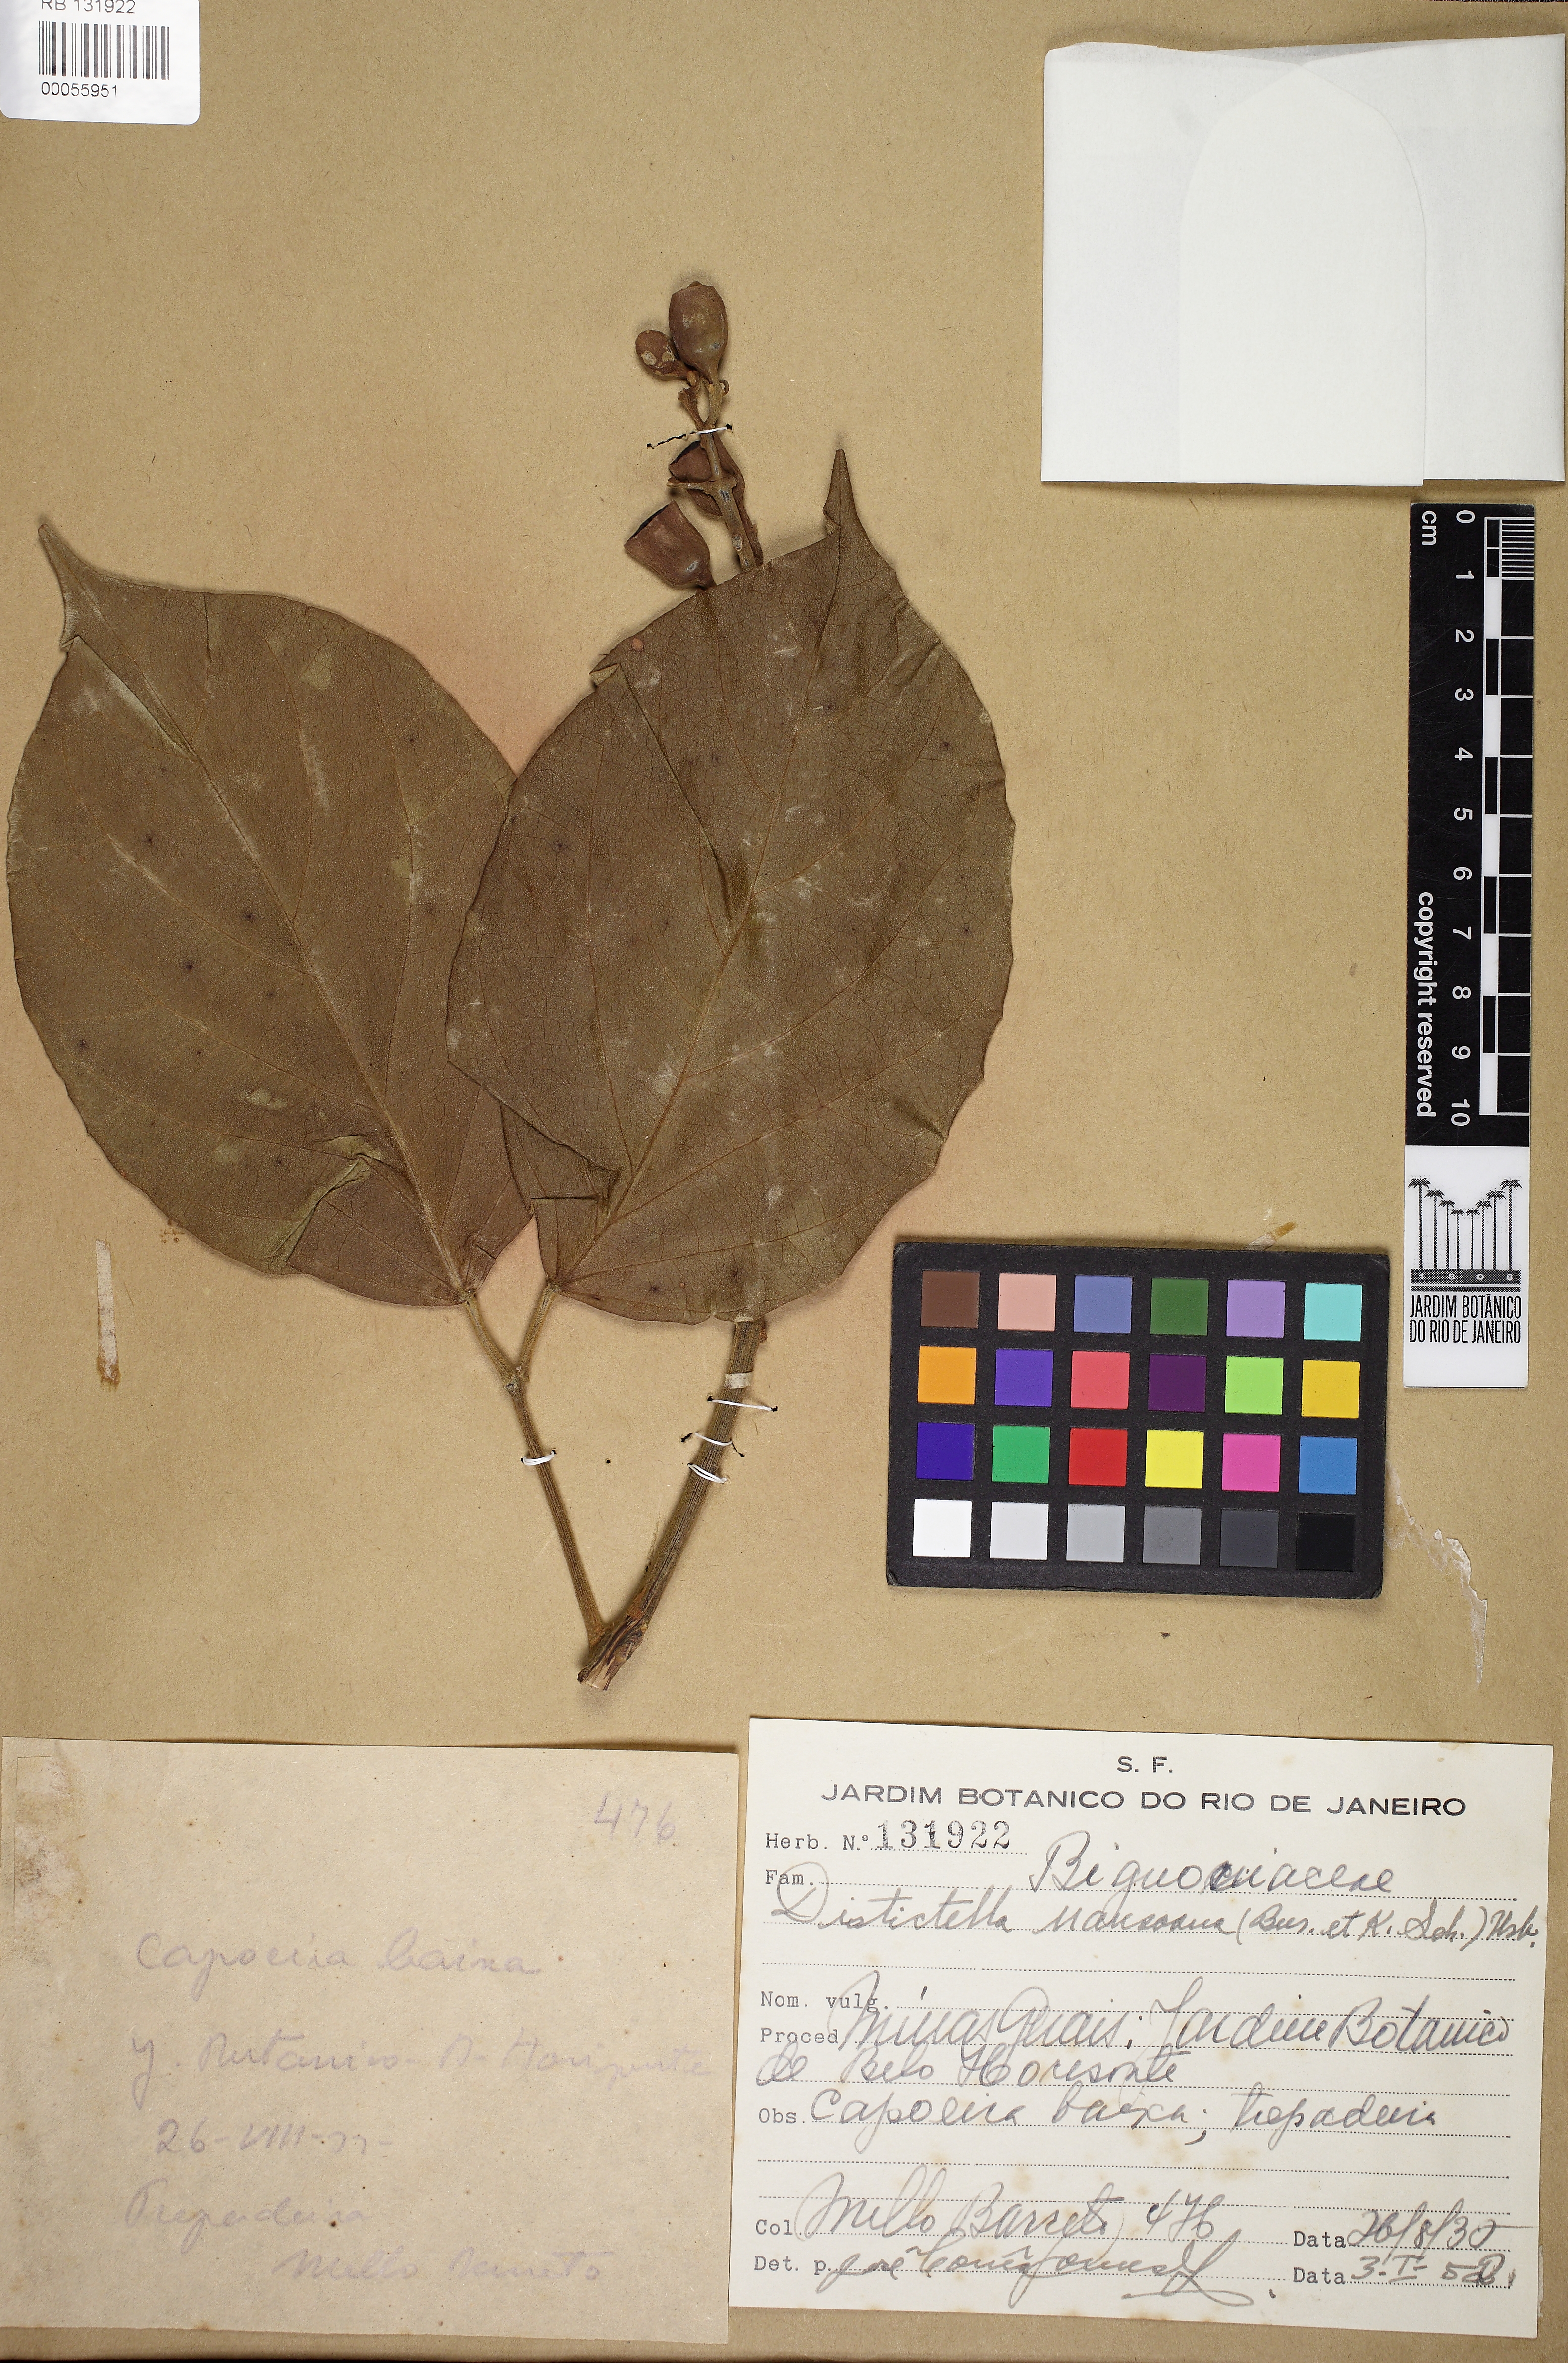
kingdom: Plantae
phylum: Tracheophyta
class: Magnoliopsida
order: Lamiales
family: Bignoniaceae
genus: Amphilophium
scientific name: Amphilophium mansoanum
